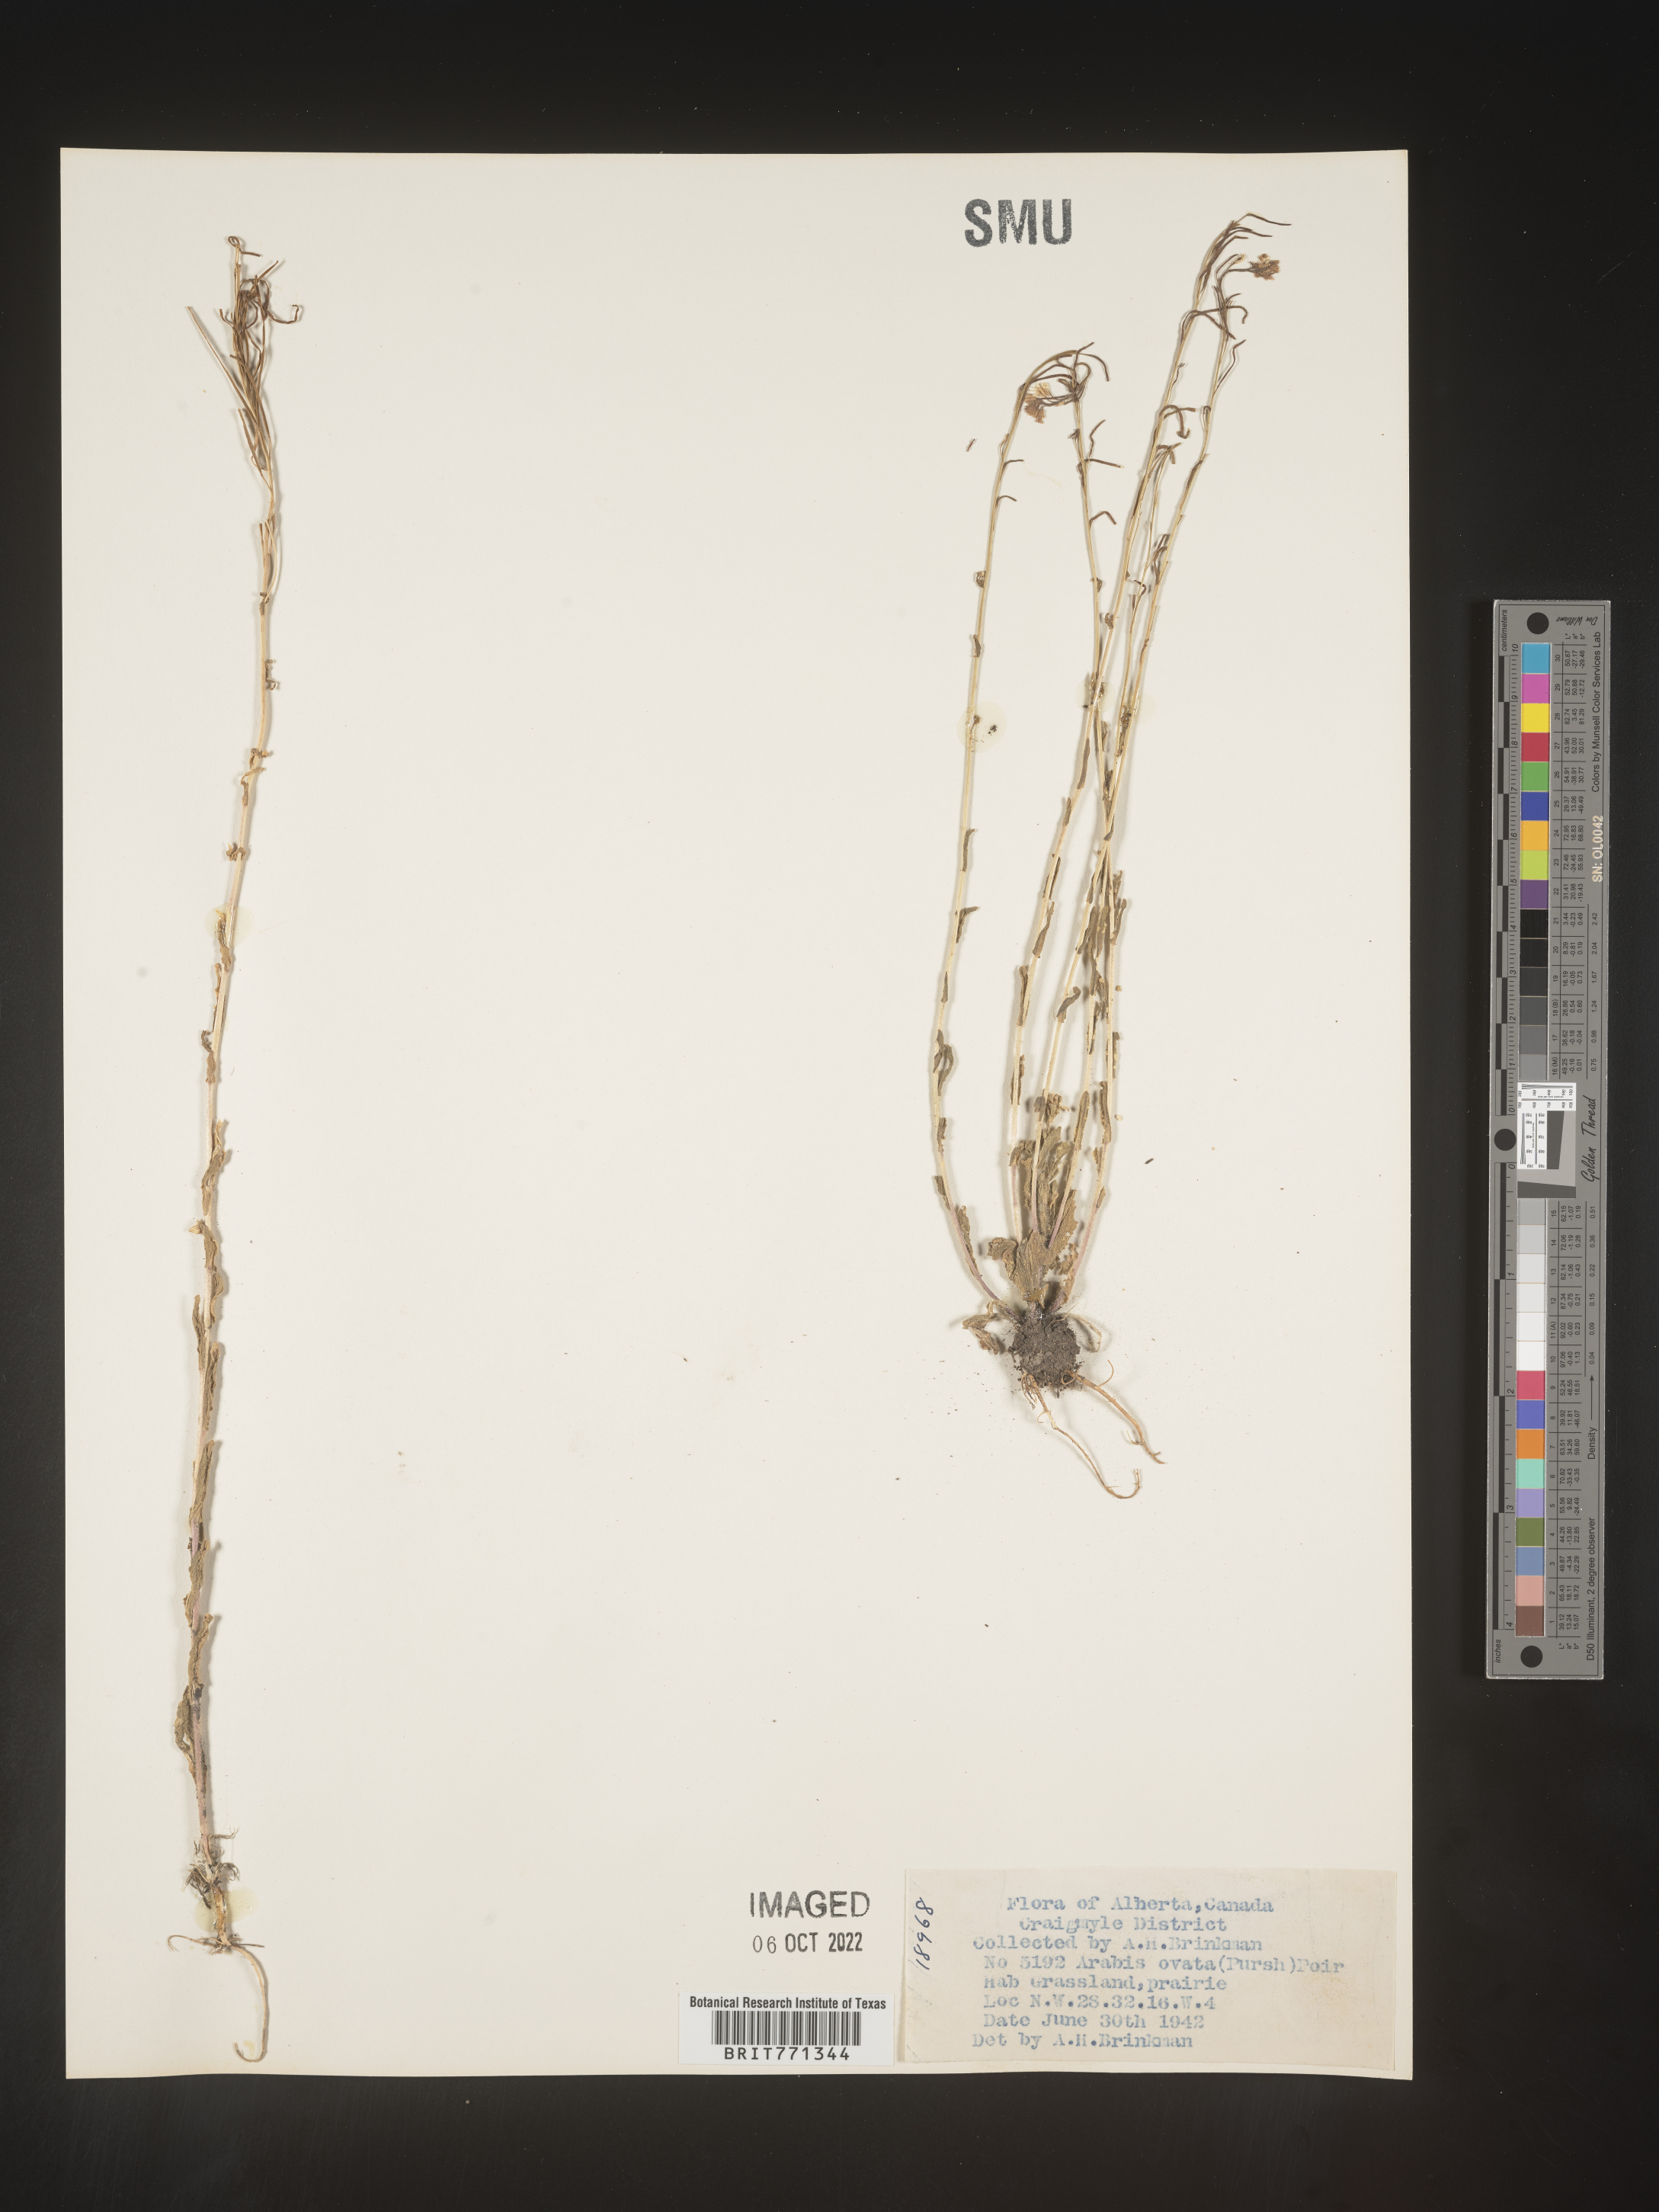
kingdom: Plantae
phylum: Tracheophyta
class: Magnoliopsida
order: Brassicales
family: Brassicaceae
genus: Arabis
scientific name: Arabis
